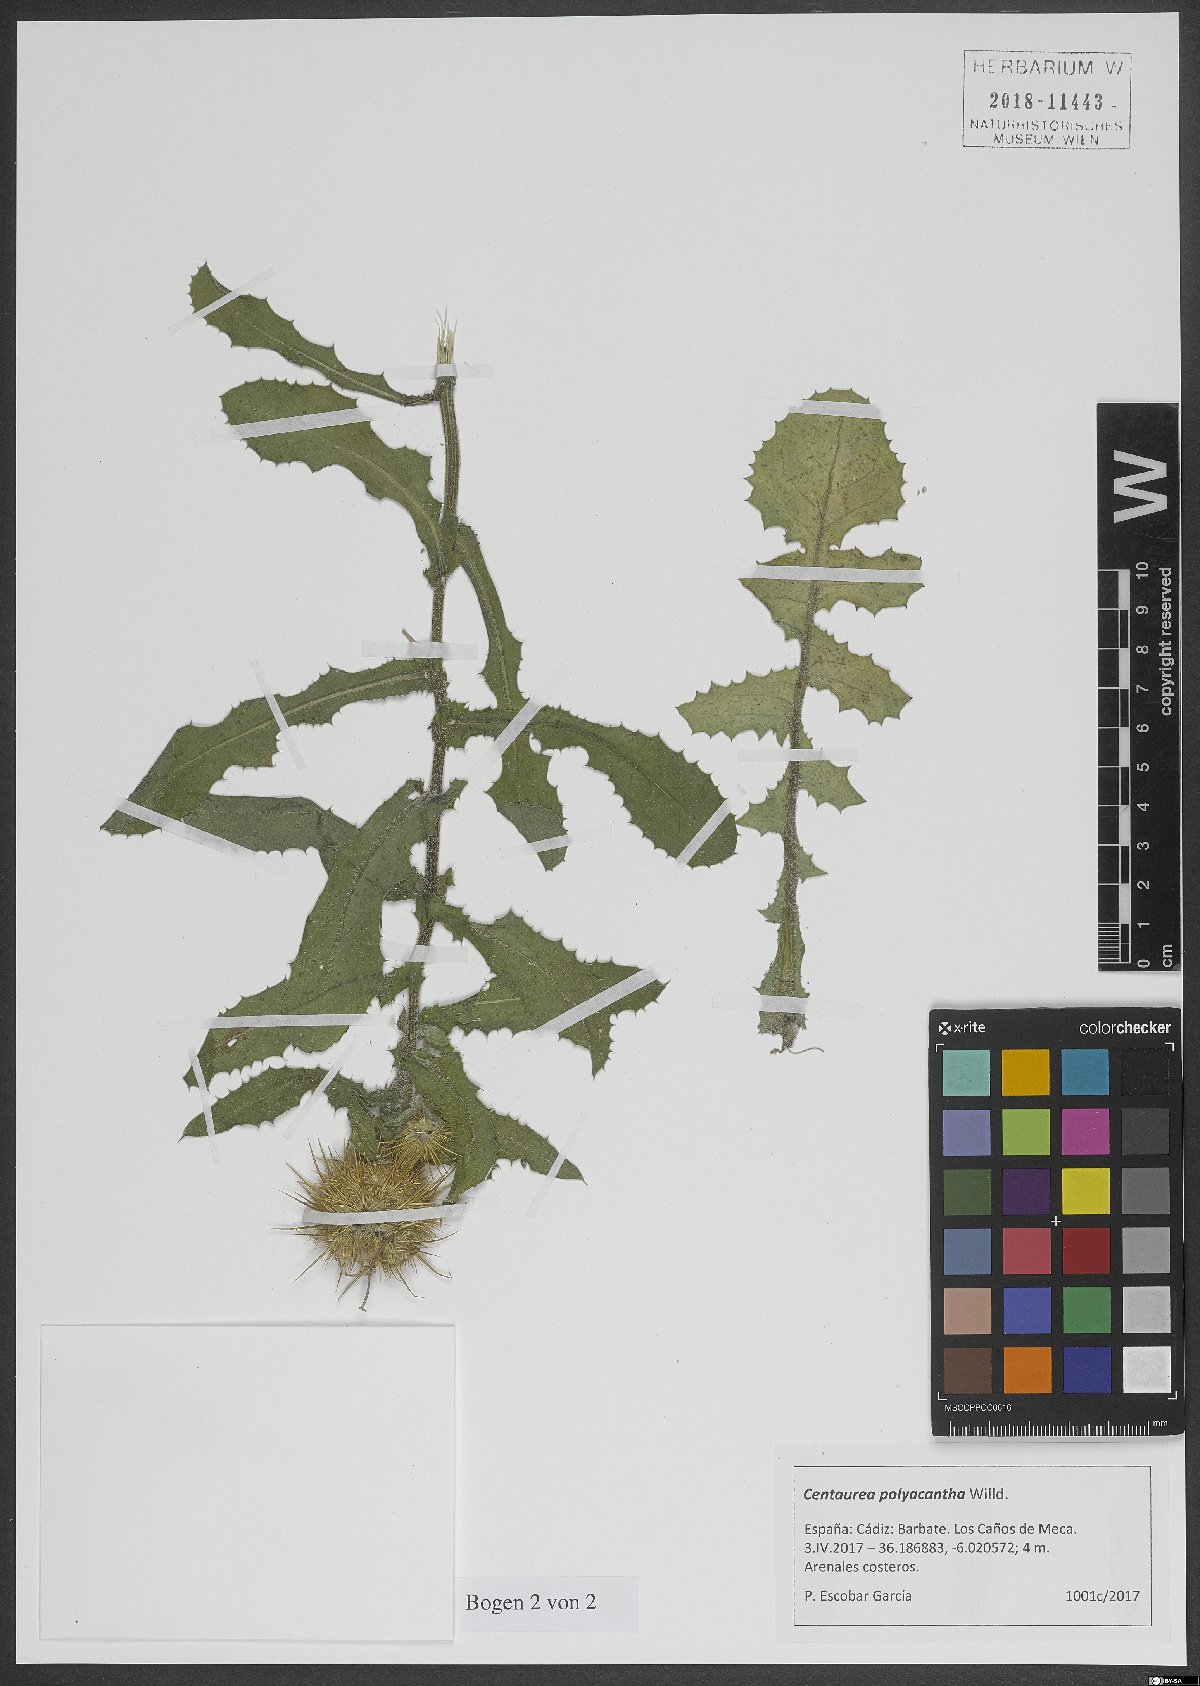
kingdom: Plantae
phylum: Tracheophyta
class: Magnoliopsida
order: Asterales
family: Asteraceae
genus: Centaurea
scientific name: Centaurea polyacantha
